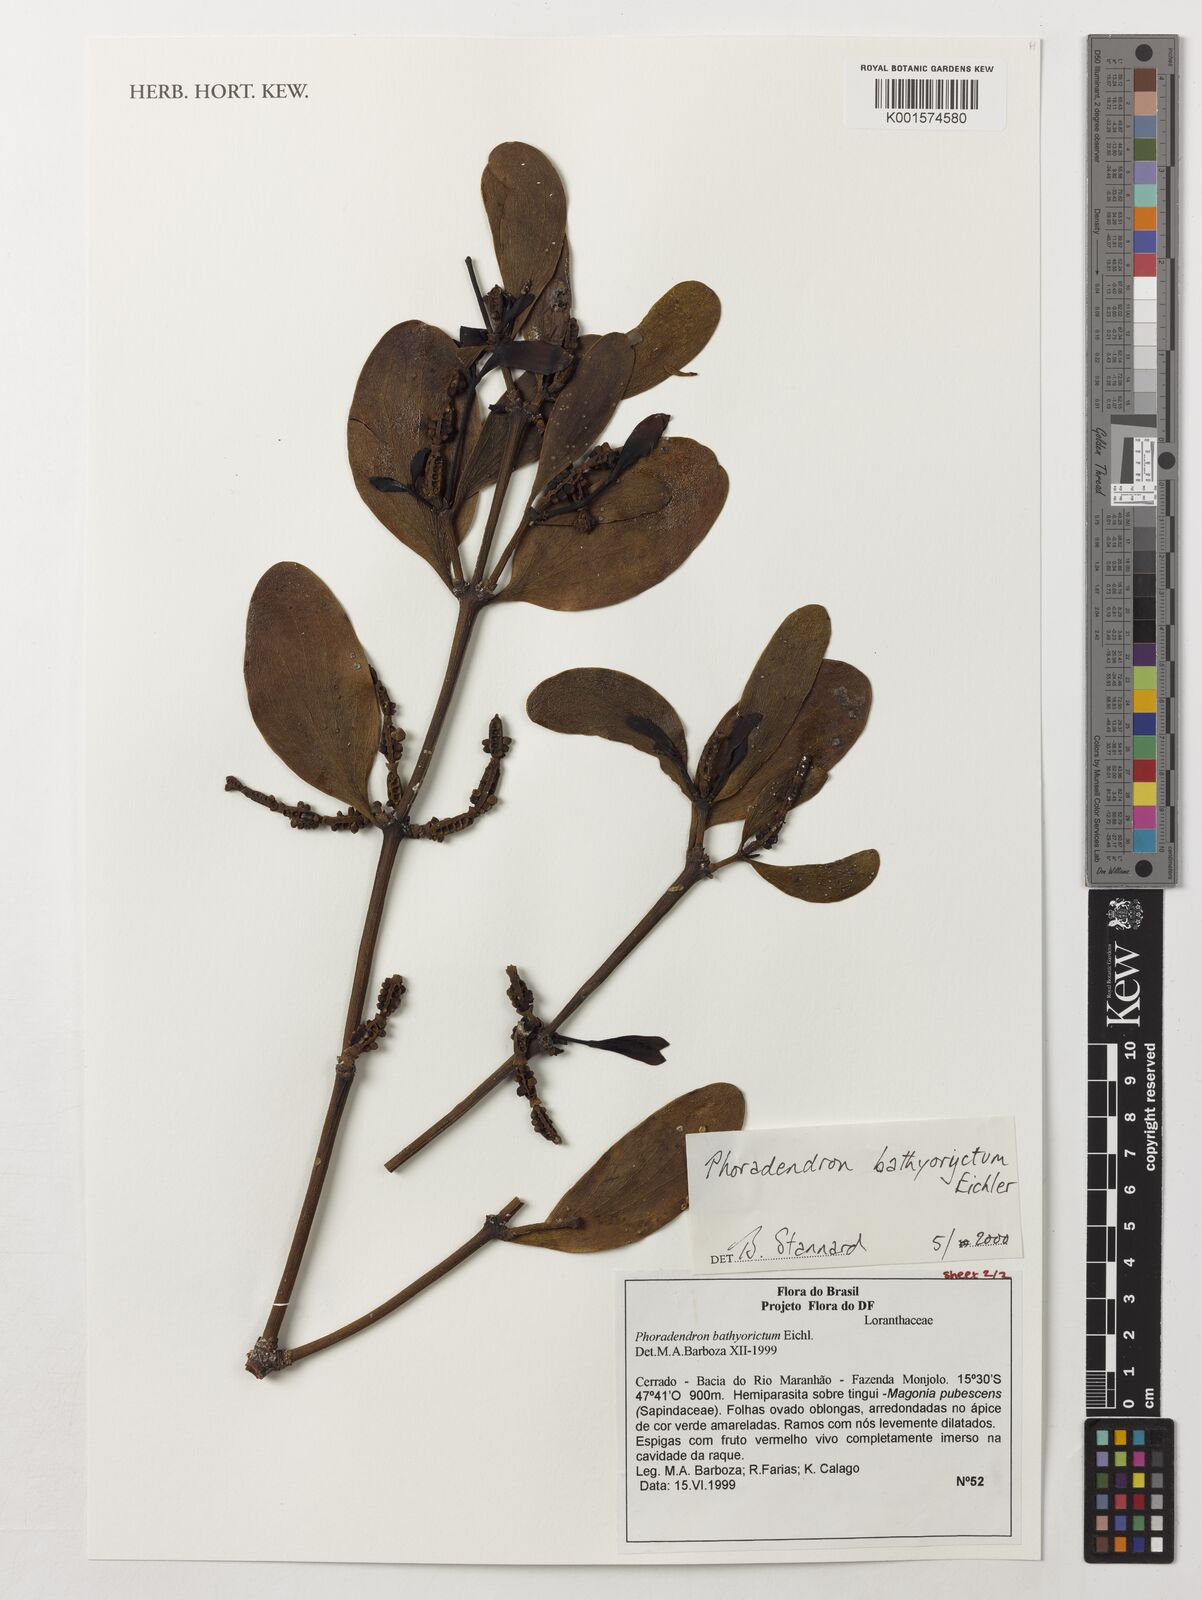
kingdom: Plantae
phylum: Tracheophyta
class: Magnoliopsida
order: Santalales
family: Viscaceae
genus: Phoradendron
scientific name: Phoradendron bathyoryctum
